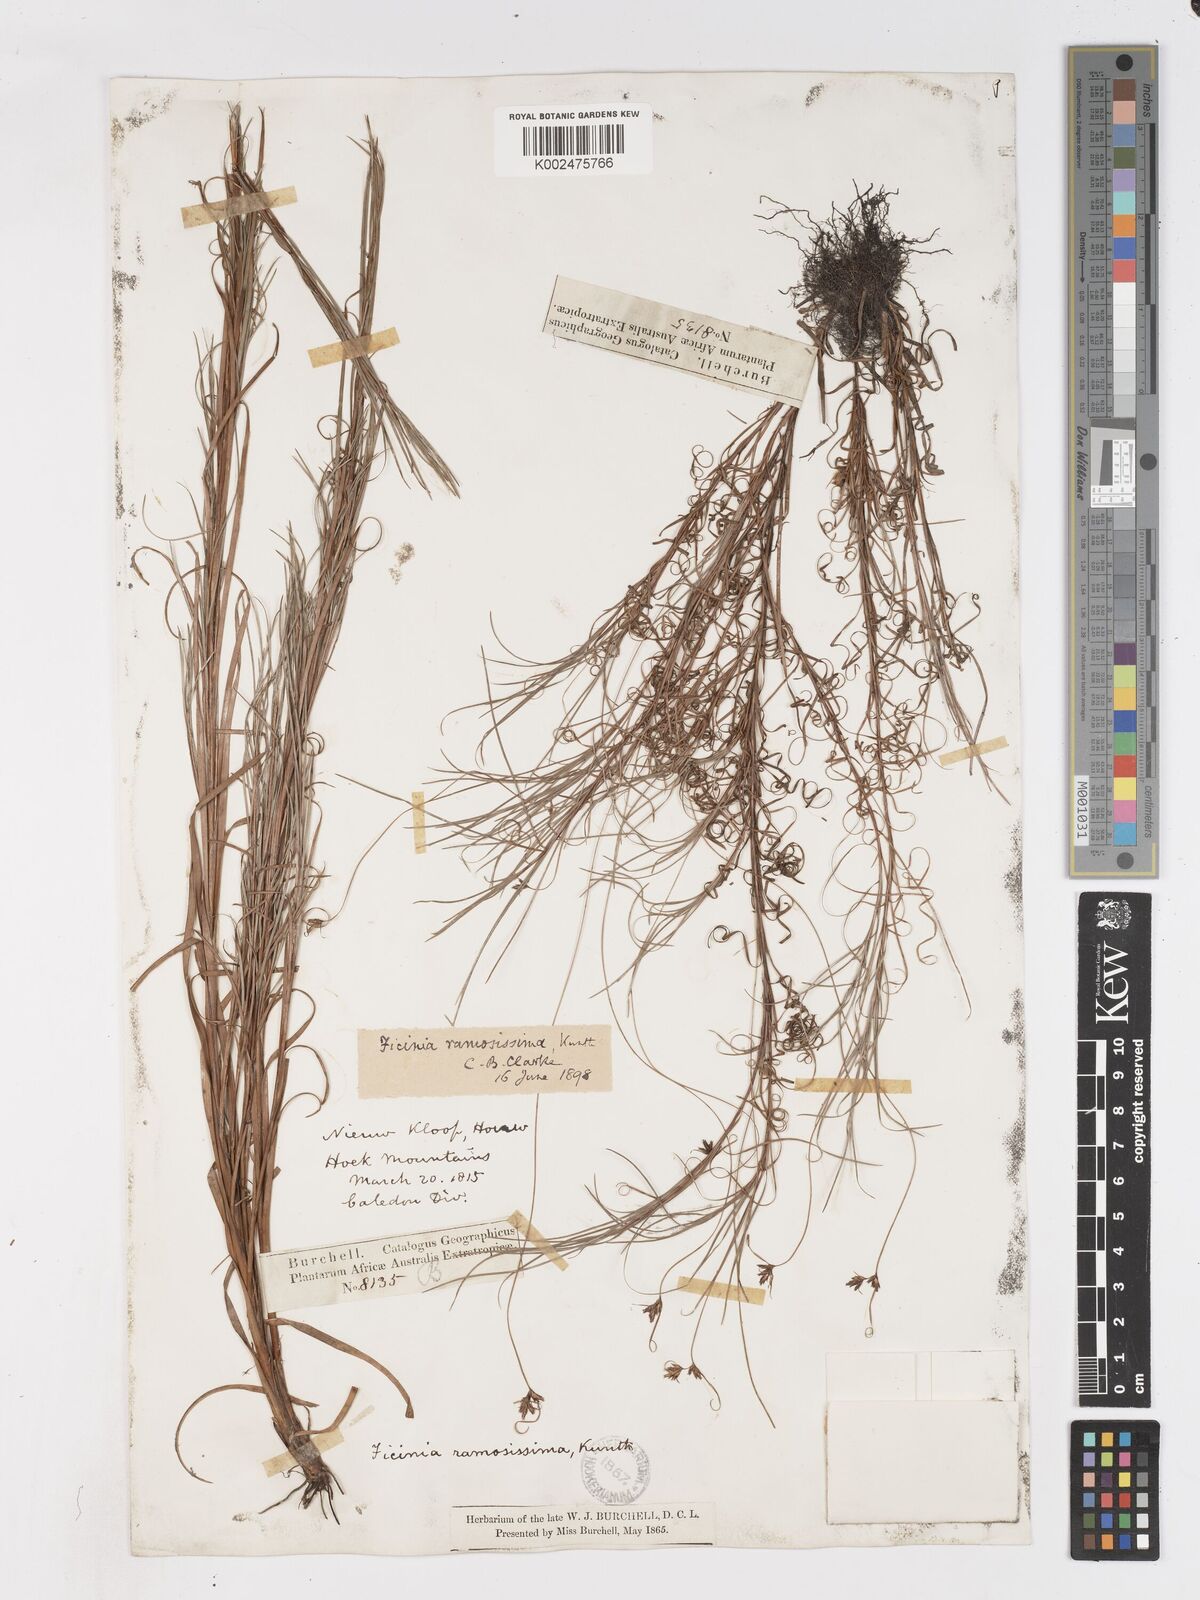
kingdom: Plantae
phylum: Tracheophyta
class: Liliopsida
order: Poales
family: Cyperaceae
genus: Ficinia
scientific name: Ficinia ramosissima
